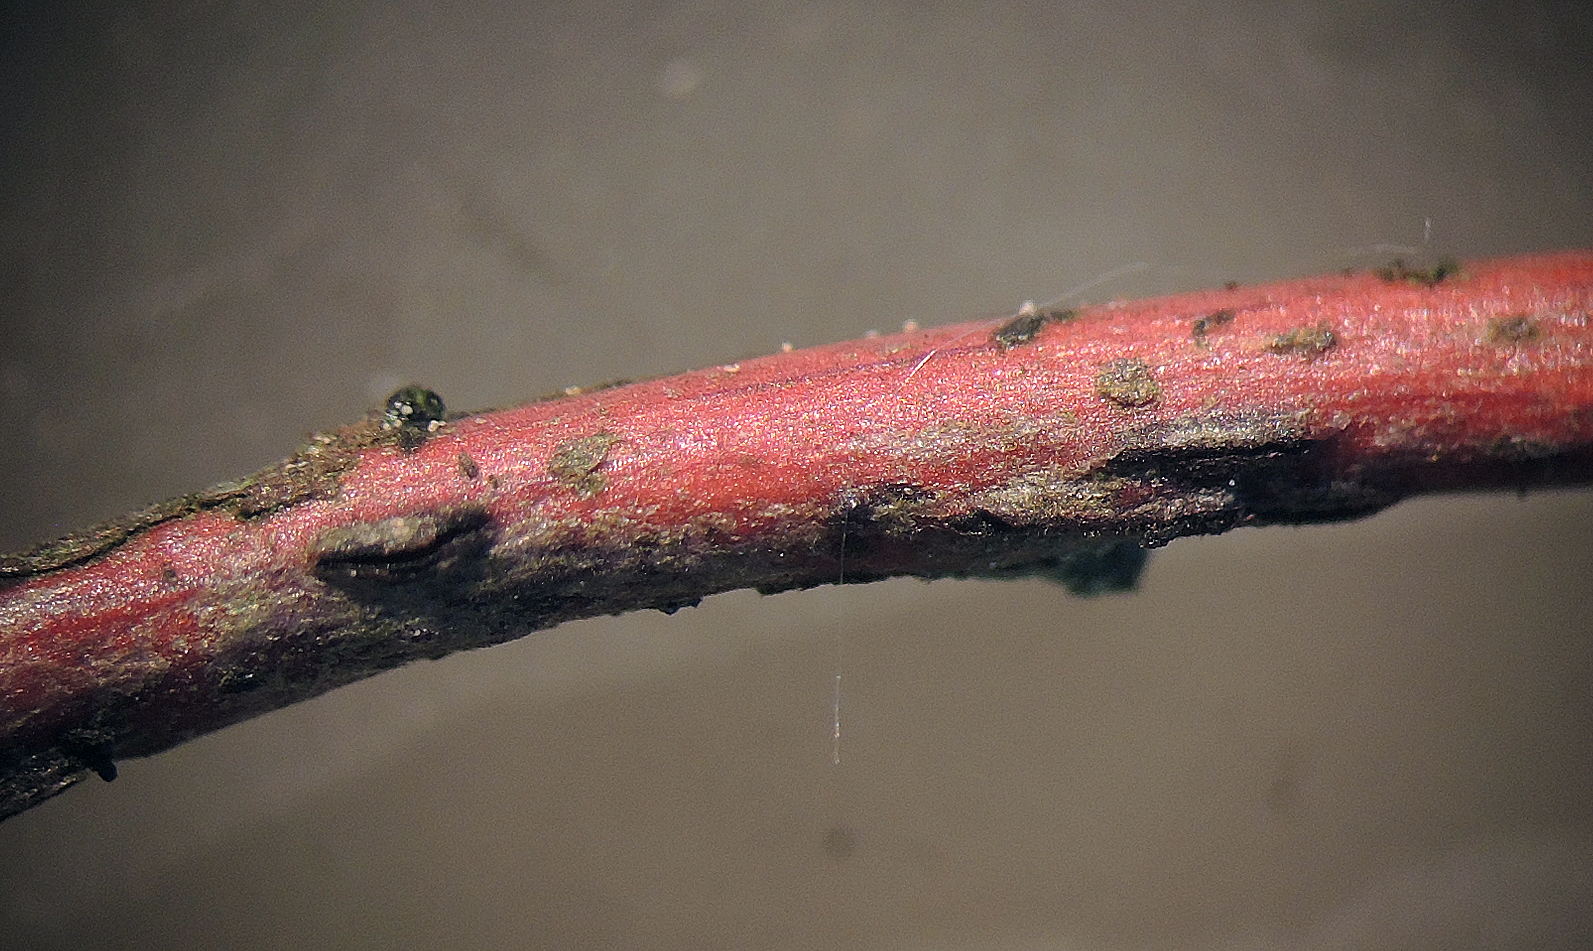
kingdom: Fungi
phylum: Ascomycota
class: Leotiomycetes
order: Rhytismatales
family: Rhytismataceae
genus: Sporomega
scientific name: Sporomega degenerans
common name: bølle-sprækkeskive
